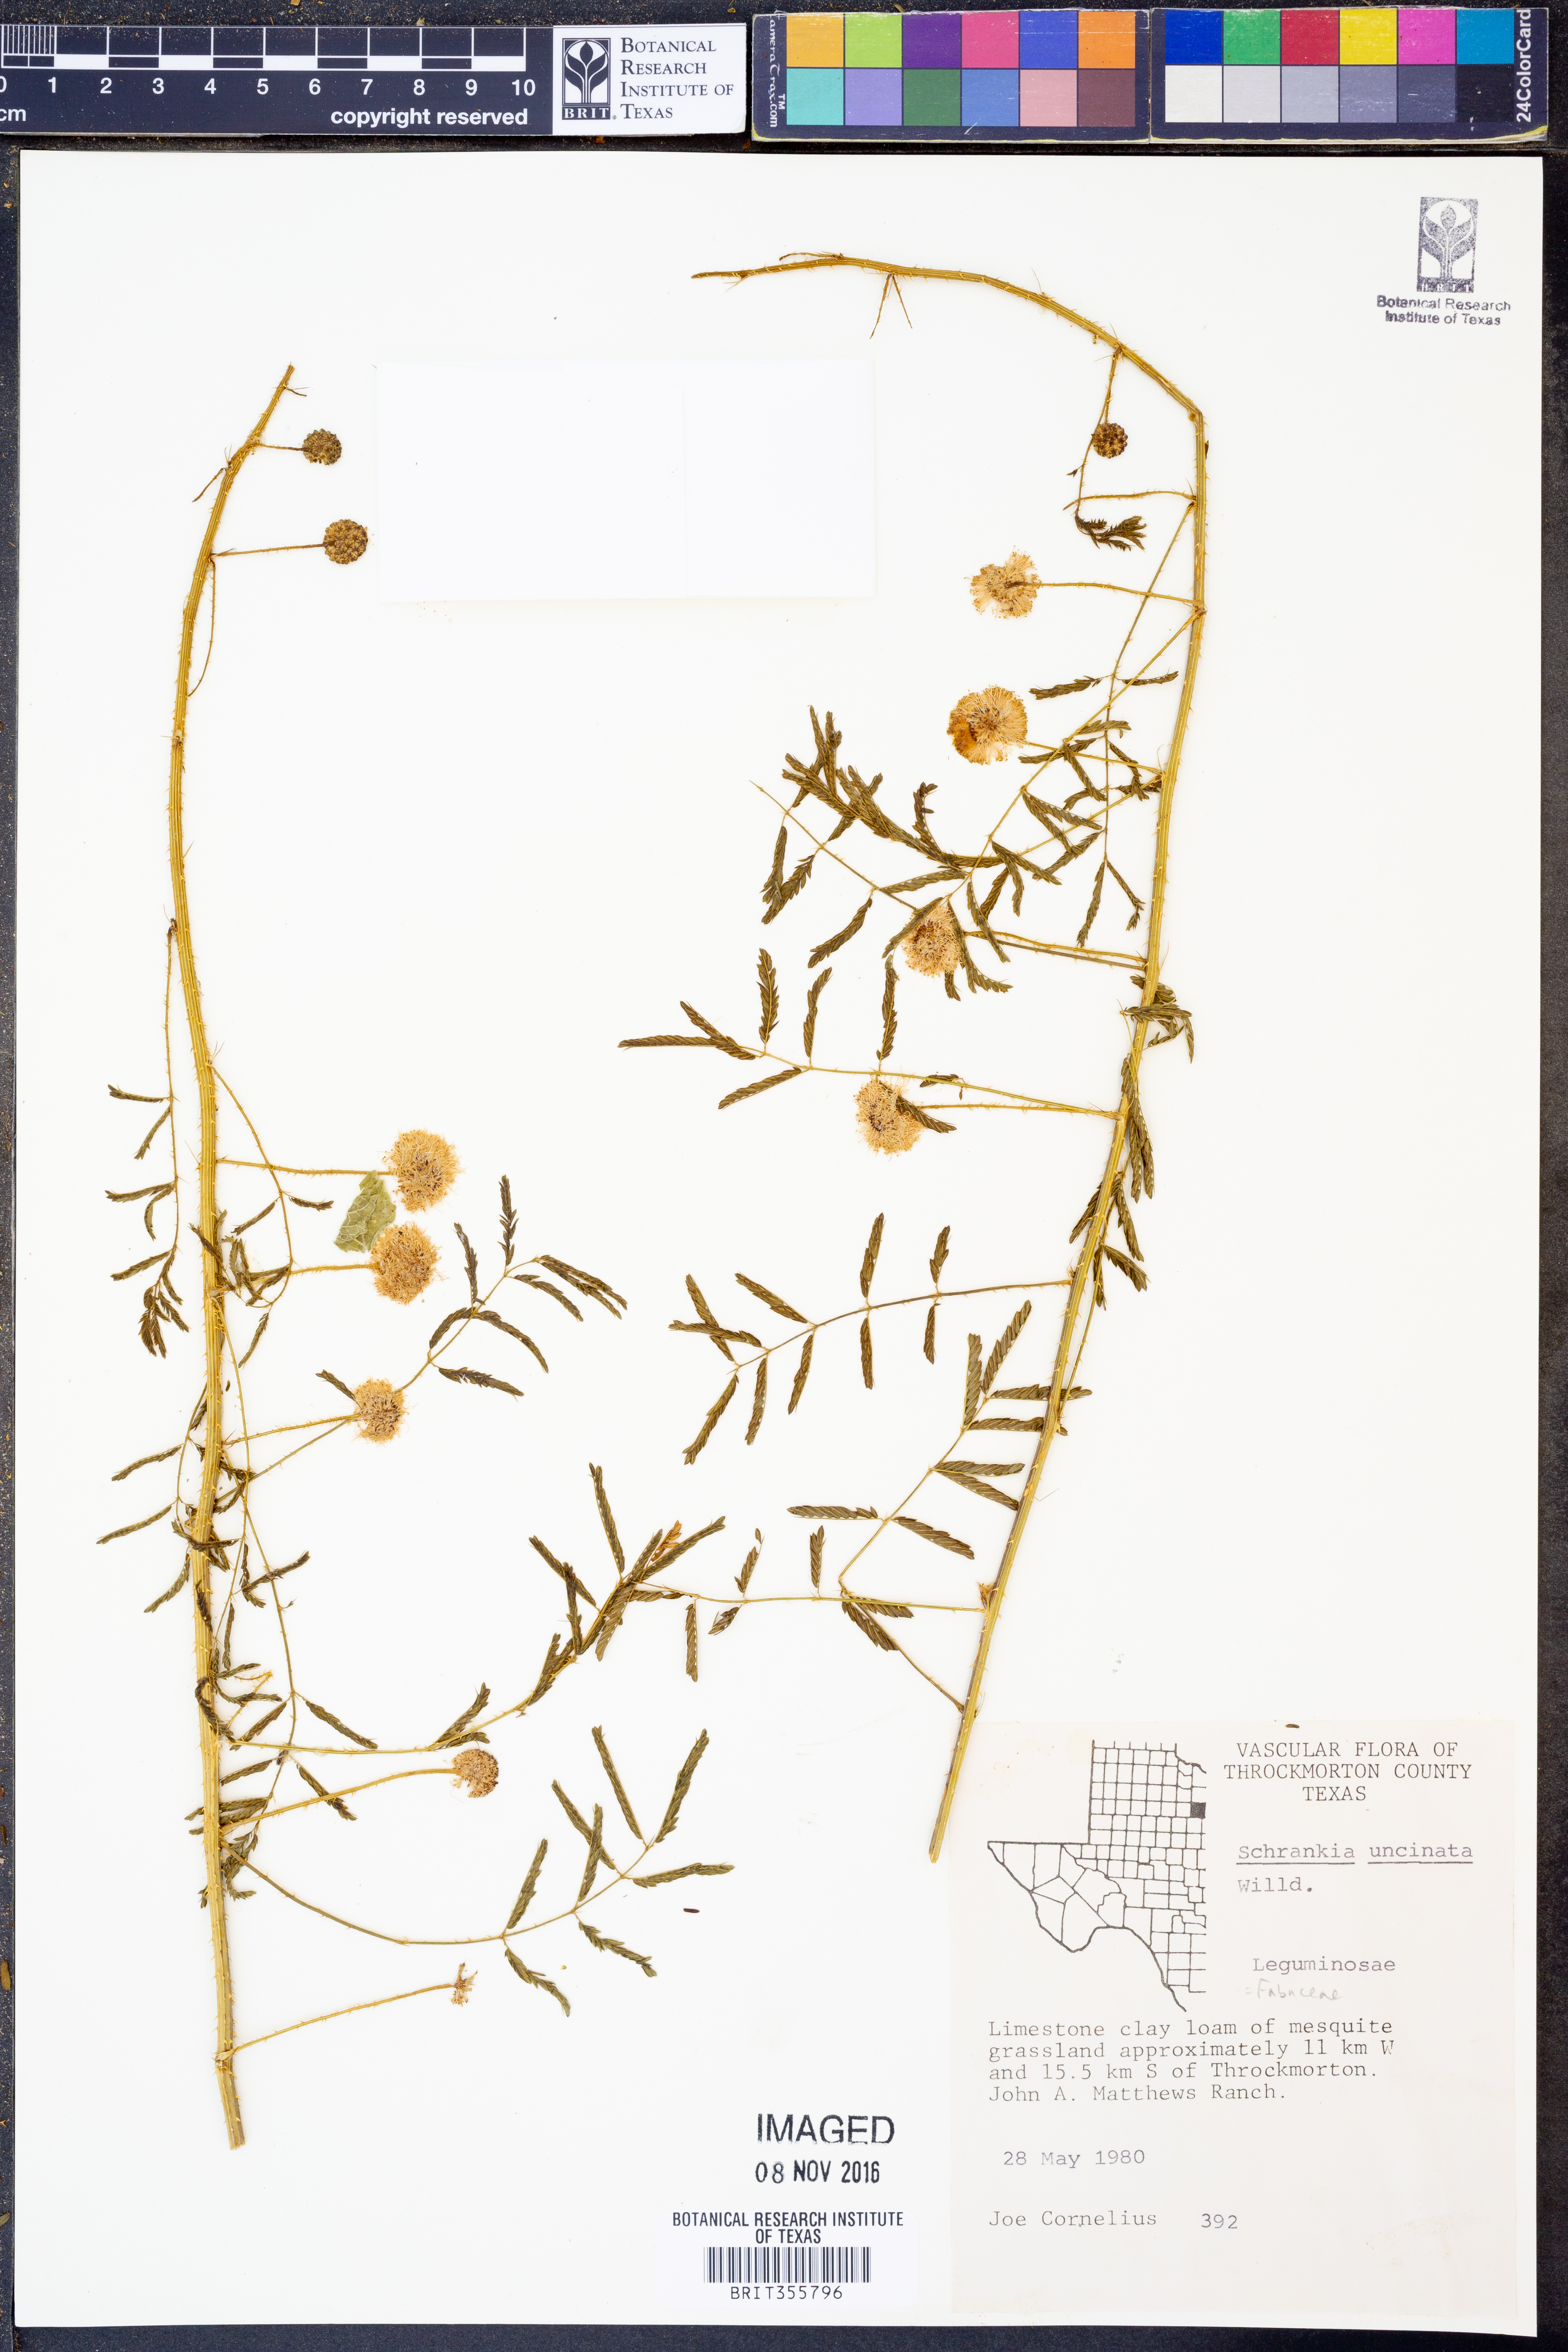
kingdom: Plantae
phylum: Tracheophyta
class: Magnoliopsida
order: Fabales
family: Fabaceae
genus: Mimosa
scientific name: Mimosa quadrivalvis
